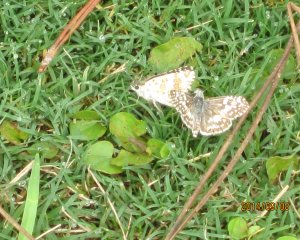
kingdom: Animalia
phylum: Arthropoda
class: Insecta
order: Lepidoptera
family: Hesperiidae
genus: Pyrgus
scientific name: Pyrgus communis
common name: Common Checkered-Skipper
